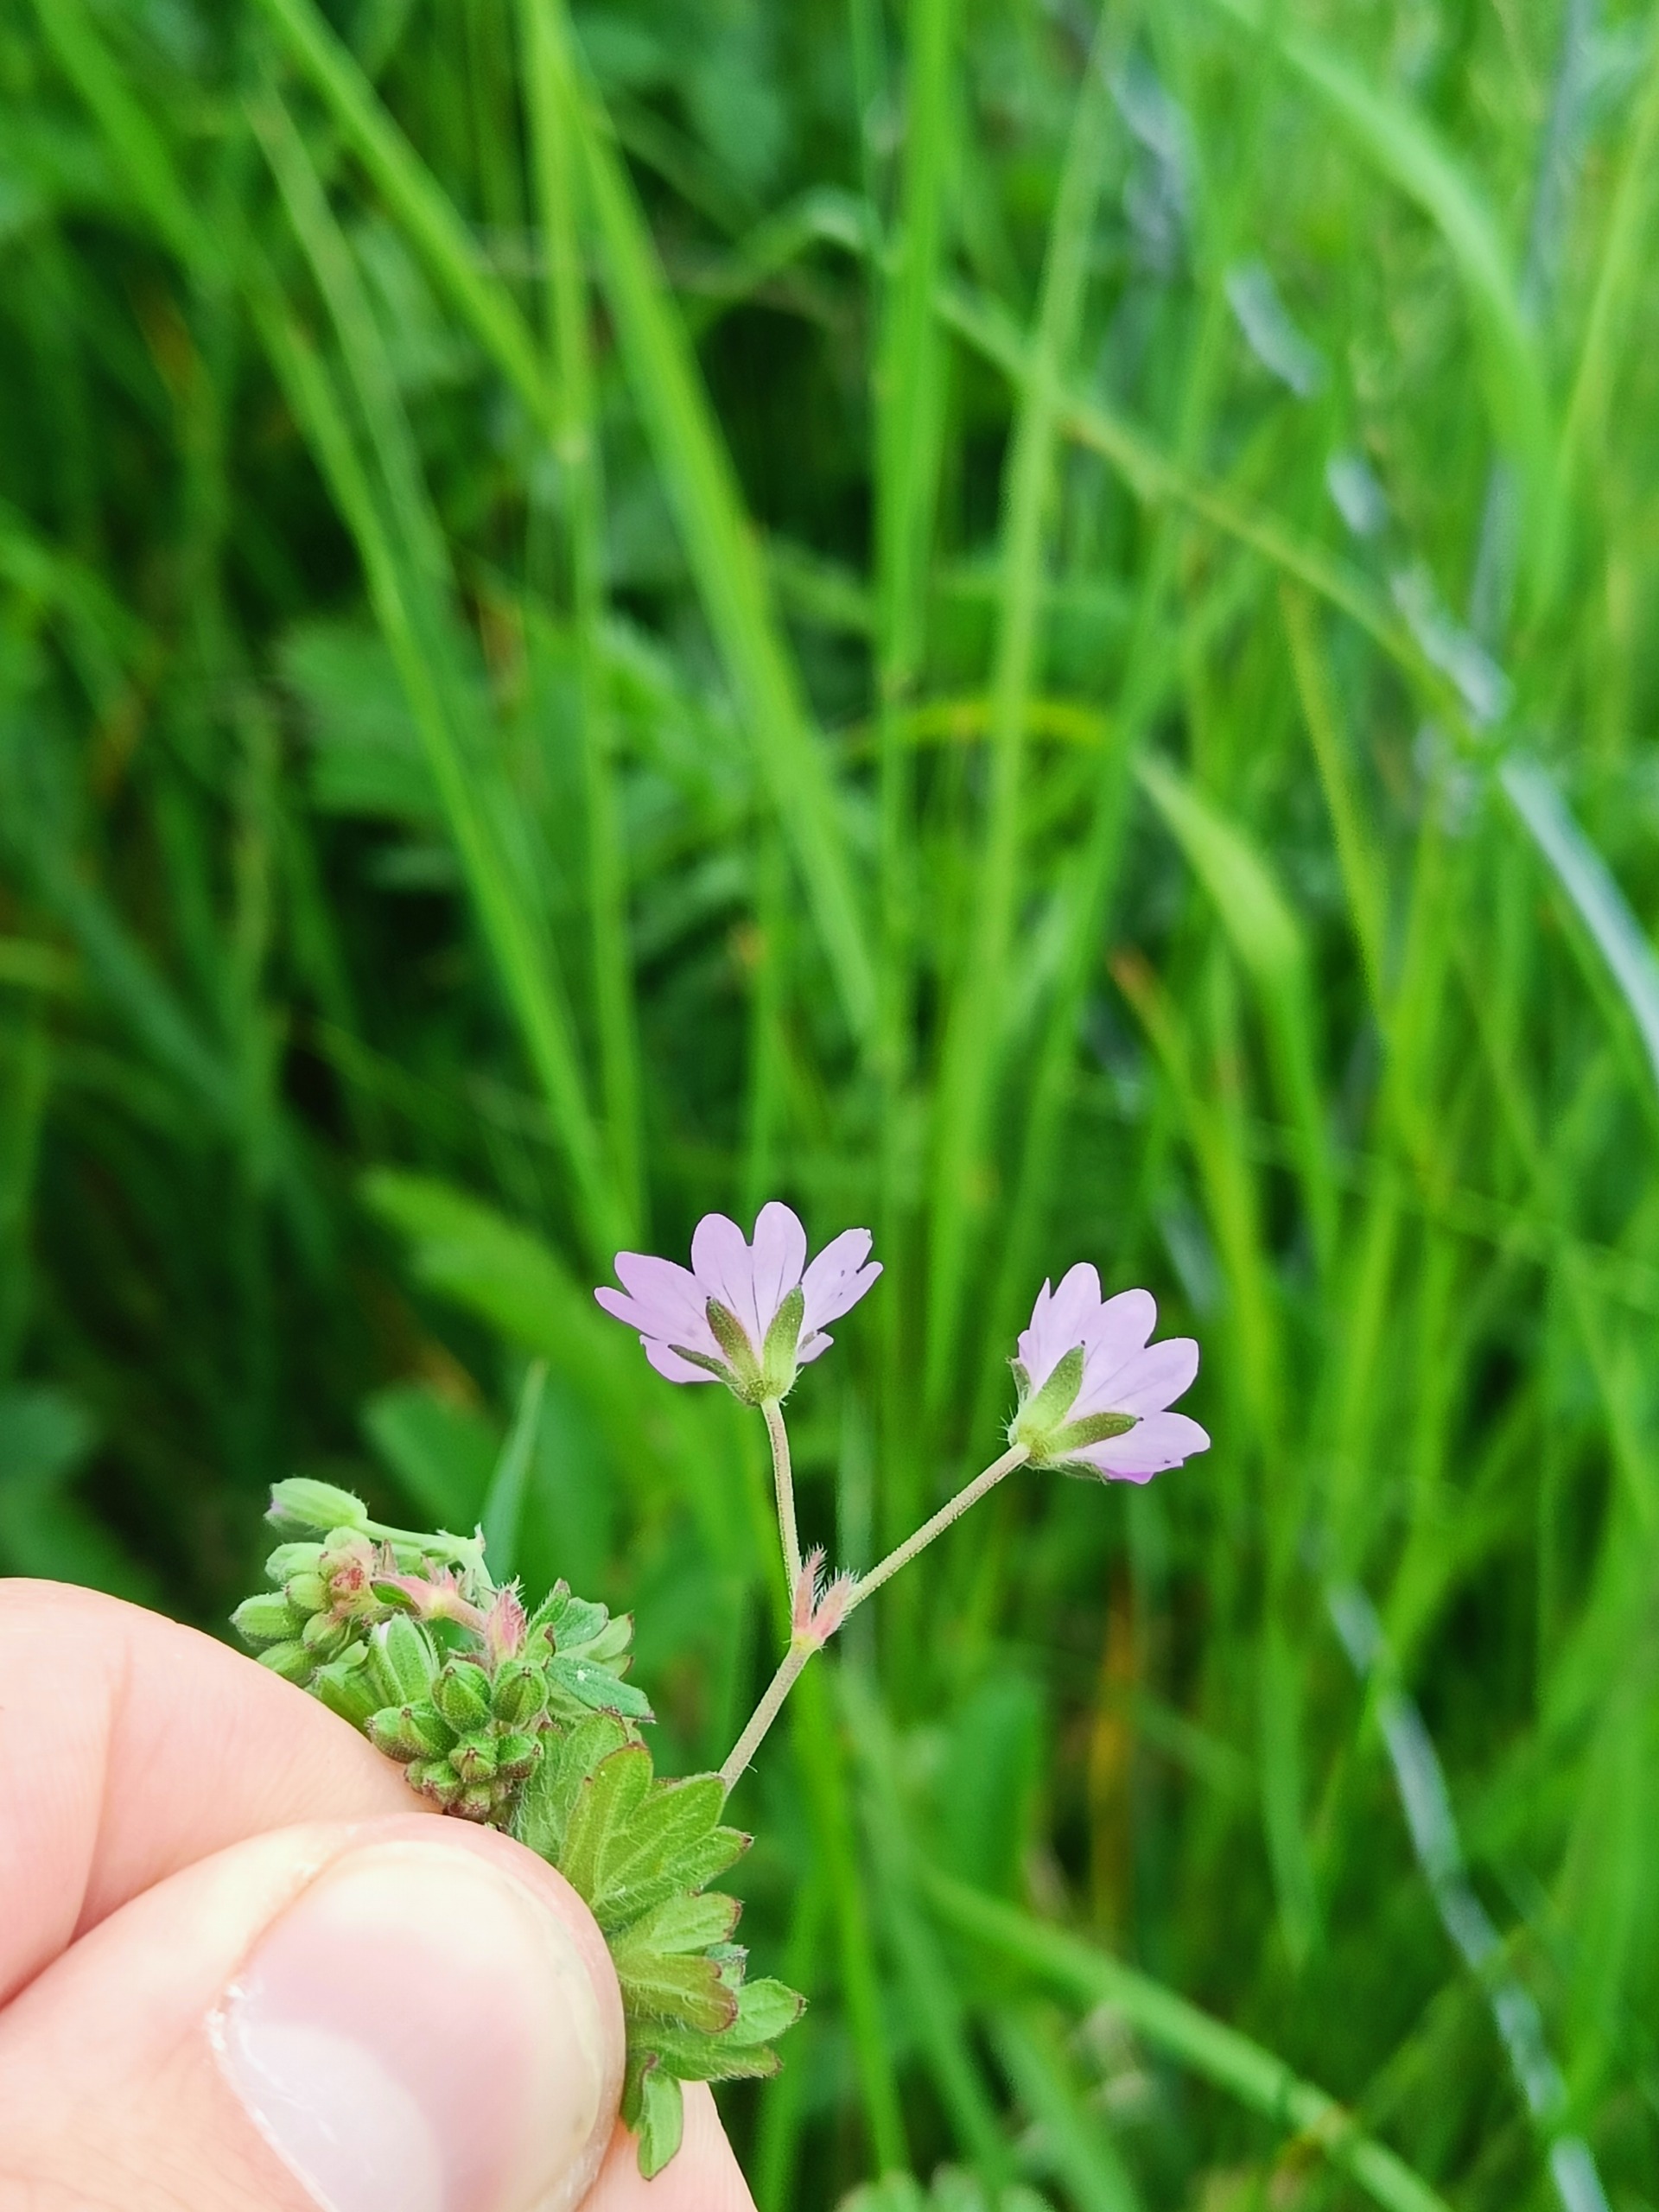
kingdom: Plantae
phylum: Tracheophyta
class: Magnoliopsida
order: Geraniales
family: Geraniaceae
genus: Geranium
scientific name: Geranium pyrenaicum
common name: Pyrenæisk storkenæb
